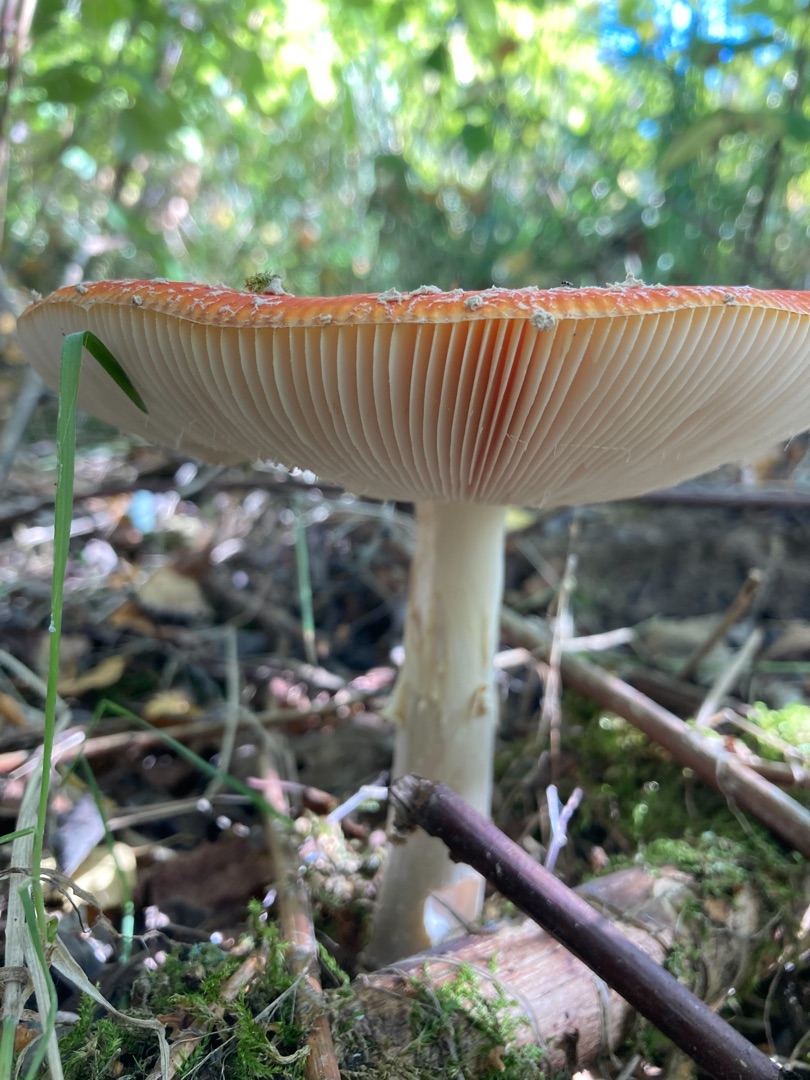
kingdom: Fungi
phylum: Basidiomycota
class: Agaricomycetes
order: Agaricales
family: Amanitaceae
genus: Amanita
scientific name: Amanita muscaria
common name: Rød fluesvamp
